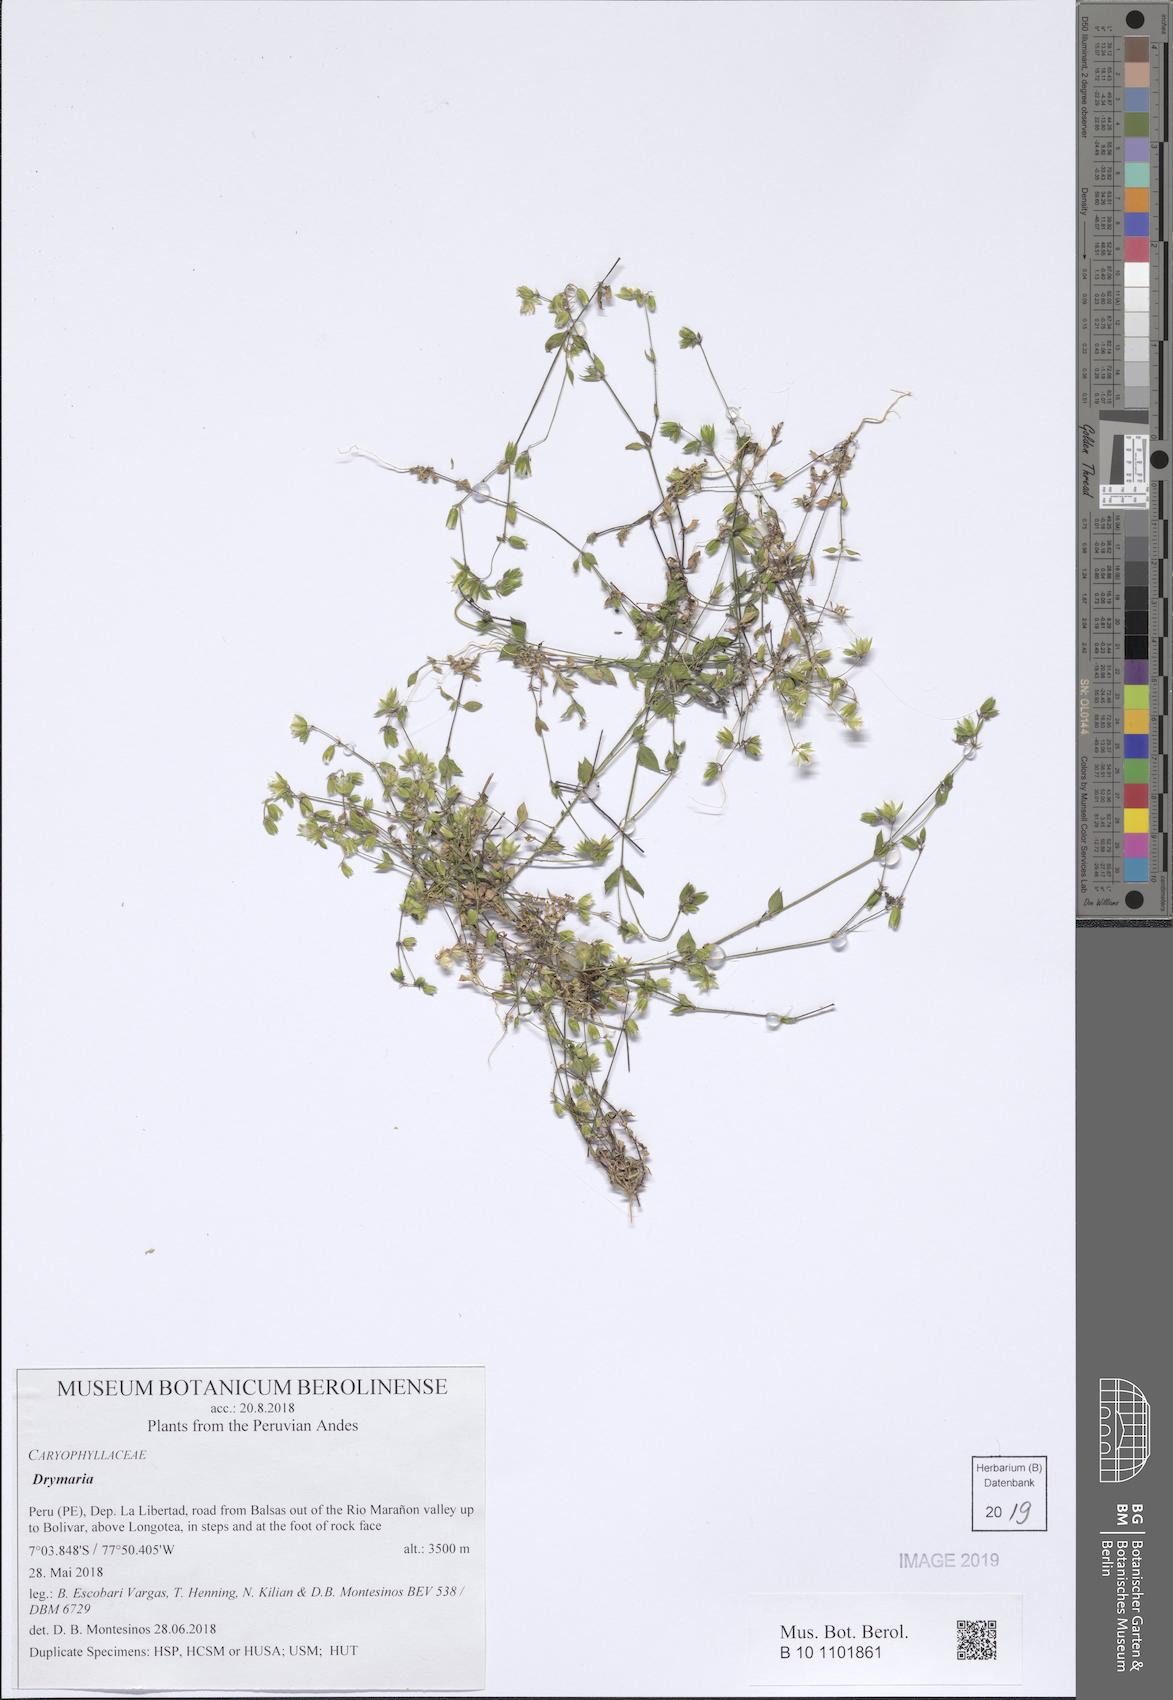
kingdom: Plantae
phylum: Tracheophyta
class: Magnoliopsida
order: Caryophyllales
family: Caryophyllaceae
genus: Drymaria
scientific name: Drymaria
